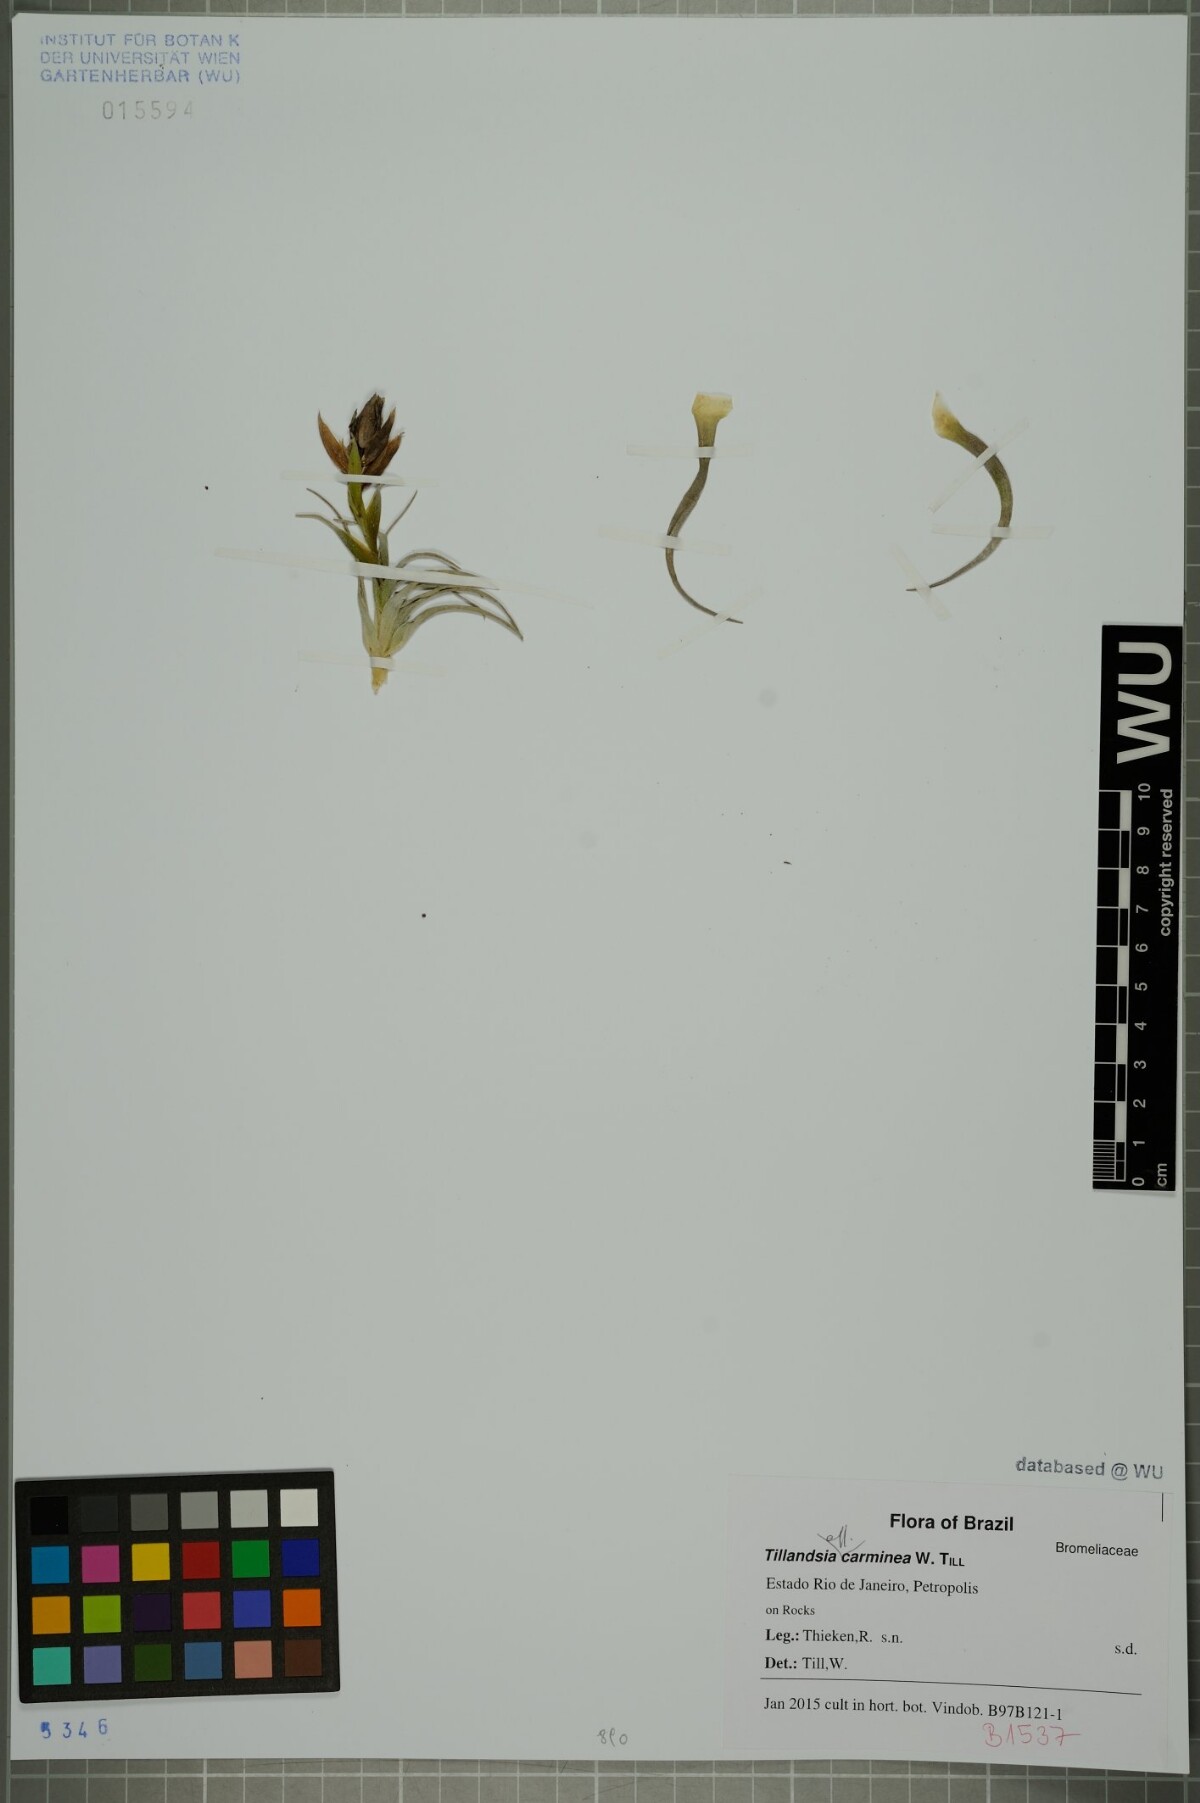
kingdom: Plantae
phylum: Tracheophyta
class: Liliopsida
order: Poales
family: Bromeliaceae
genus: Tillandsia
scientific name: Tillandsia carminea
